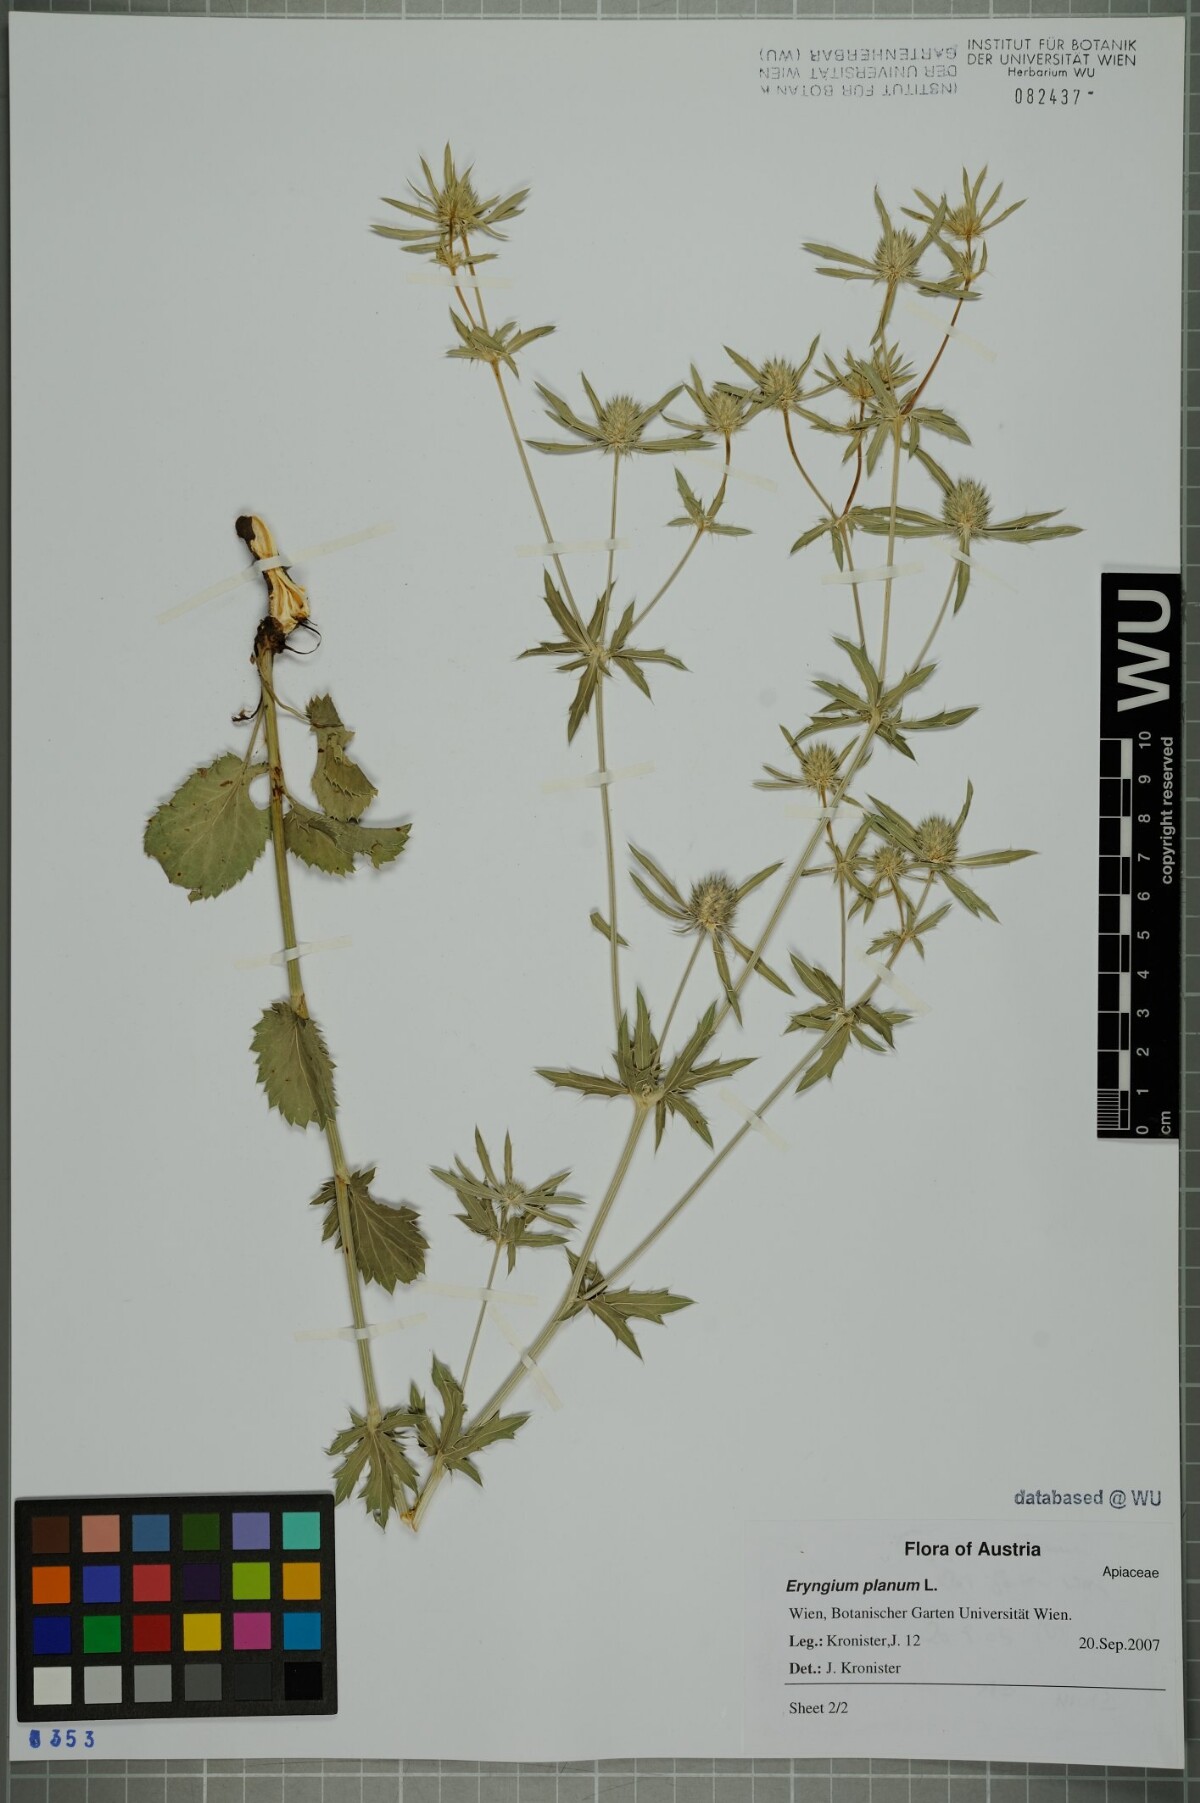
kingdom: Plantae
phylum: Tracheophyta
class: Magnoliopsida
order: Apiales
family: Apiaceae
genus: Eryngium
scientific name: Eryngium planum
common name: Blue eryngo
